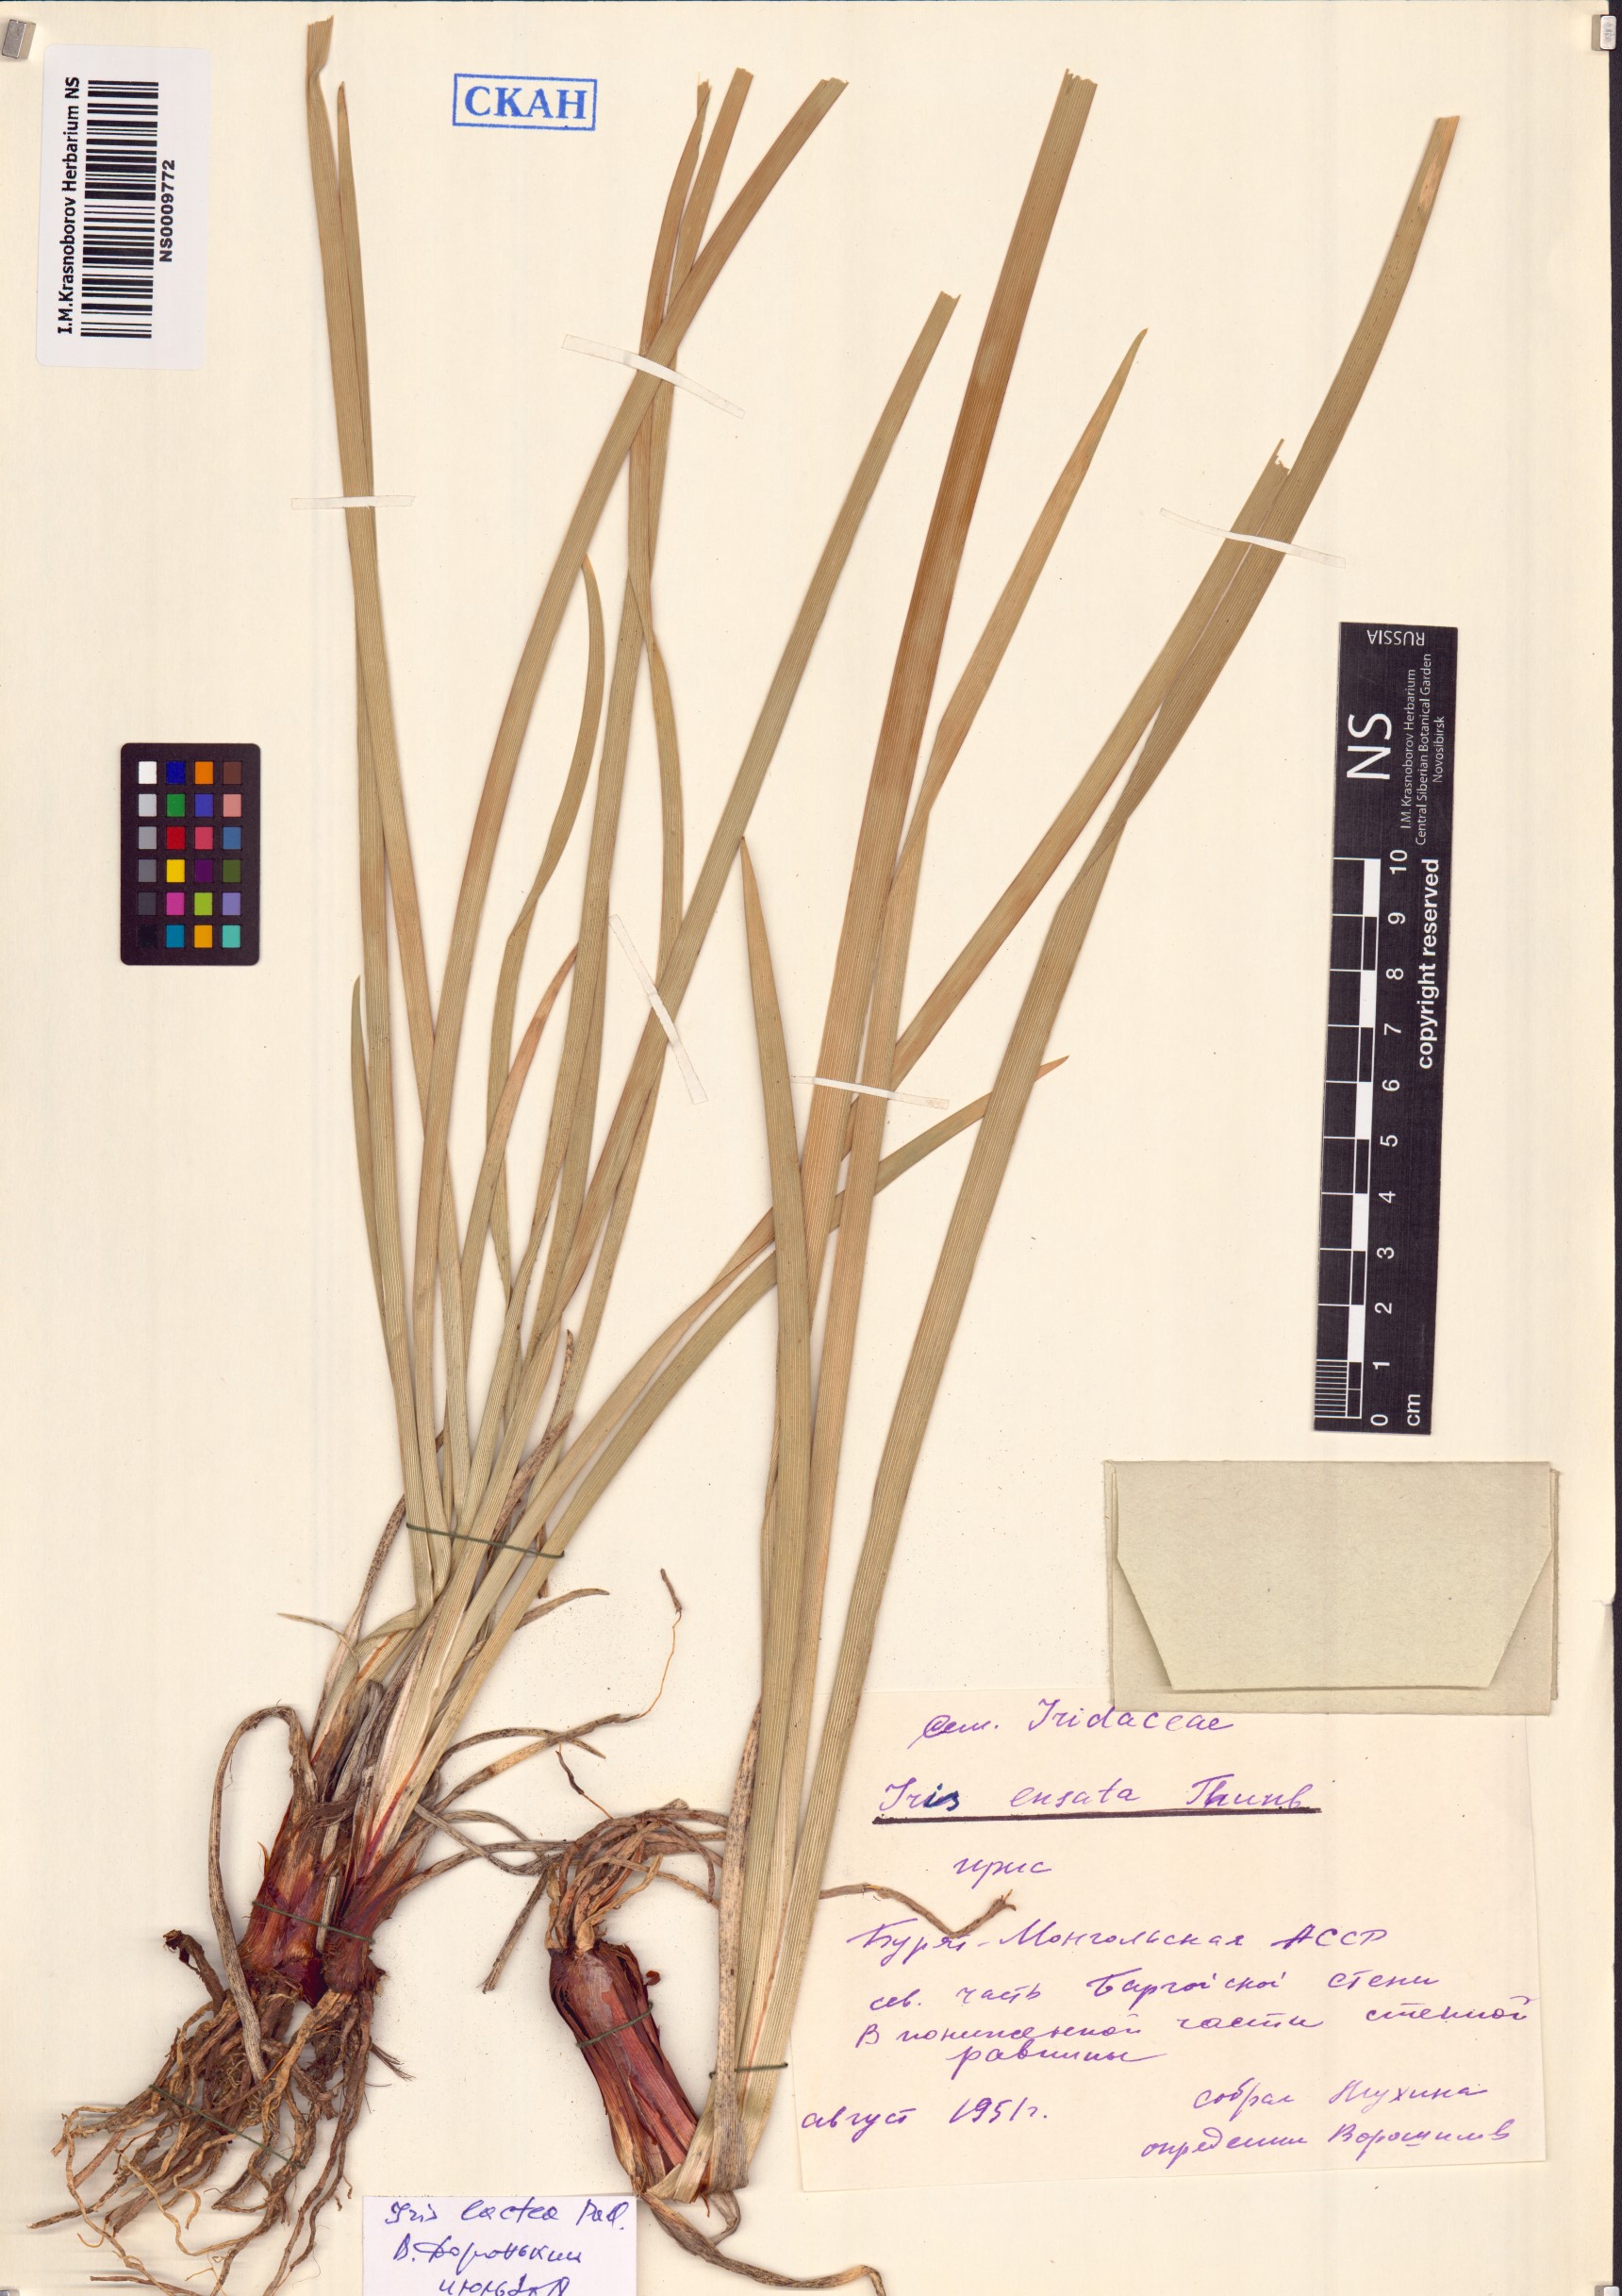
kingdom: Plantae
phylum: Tracheophyta
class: Liliopsida
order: Asparagales
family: Iridaceae
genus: Iris
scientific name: Iris lactea
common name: White-flower chinese iris
